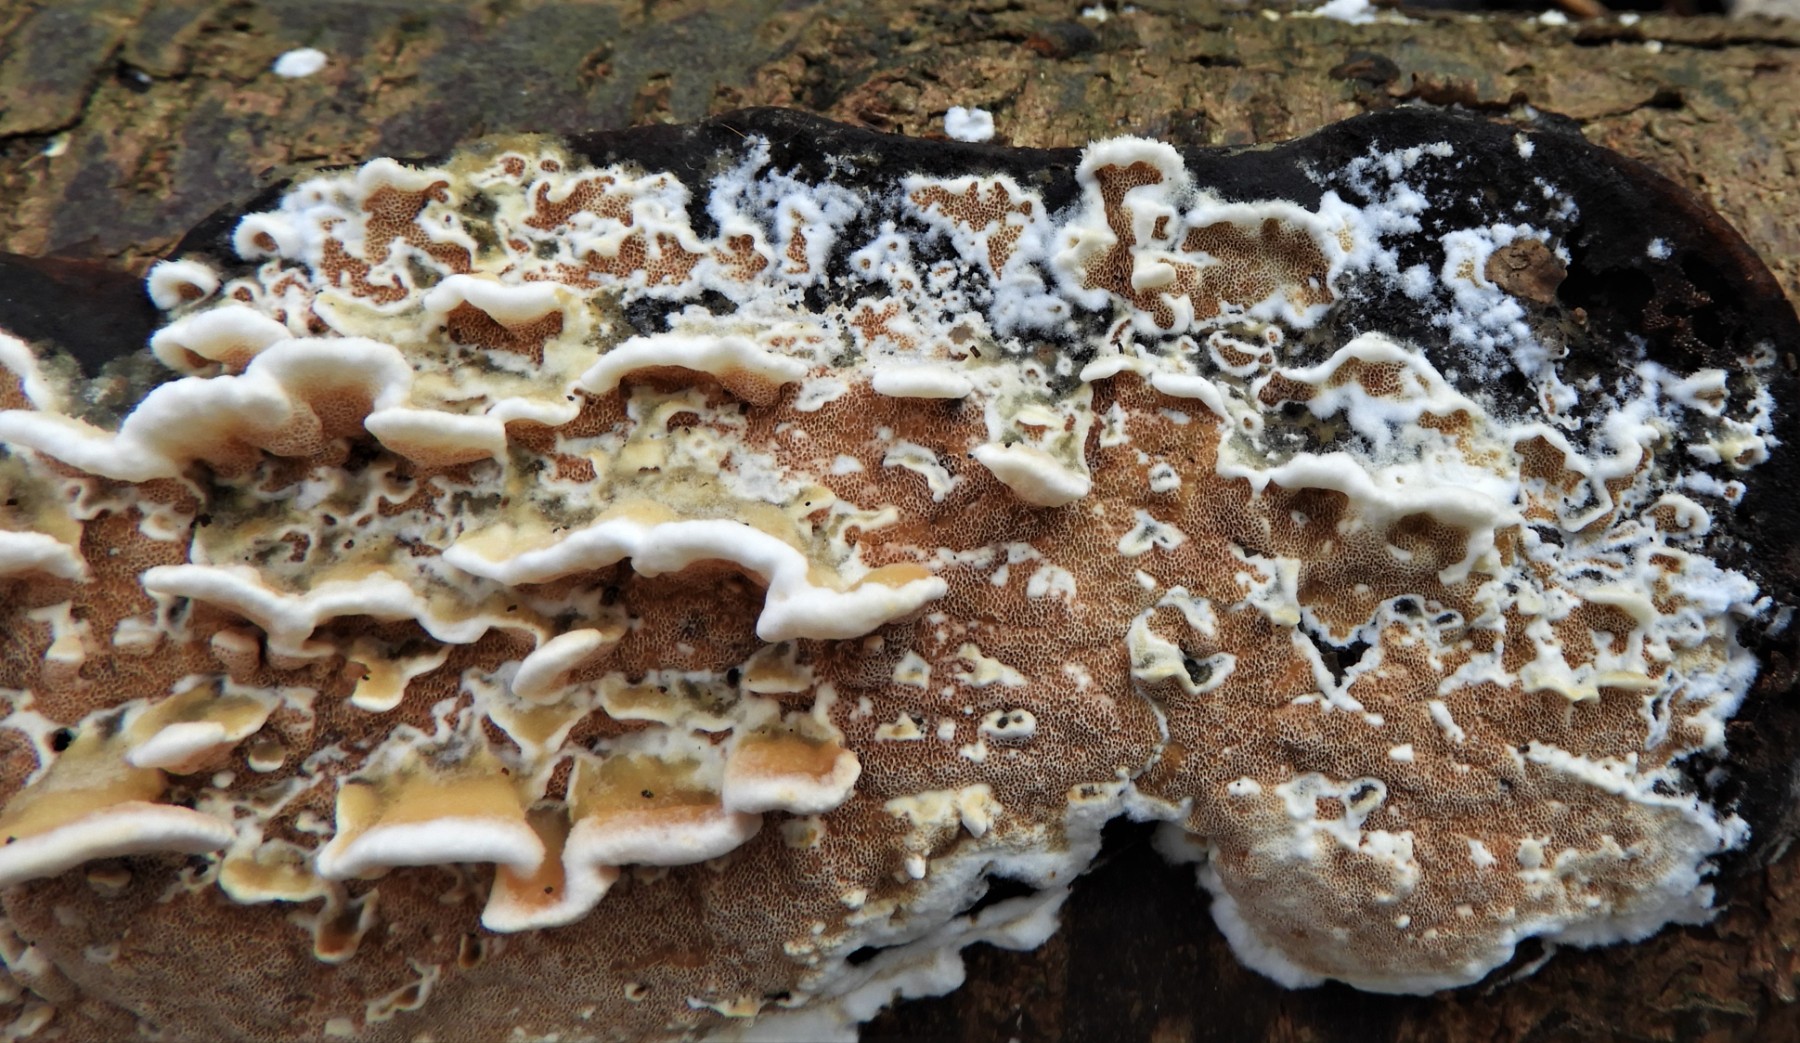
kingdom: Fungi
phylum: Basidiomycota
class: Agaricomycetes
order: Polyporales
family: Irpicaceae
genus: Vitreoporus
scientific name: Vitreoporus dichrous
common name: tofarvet foldporesvamp
